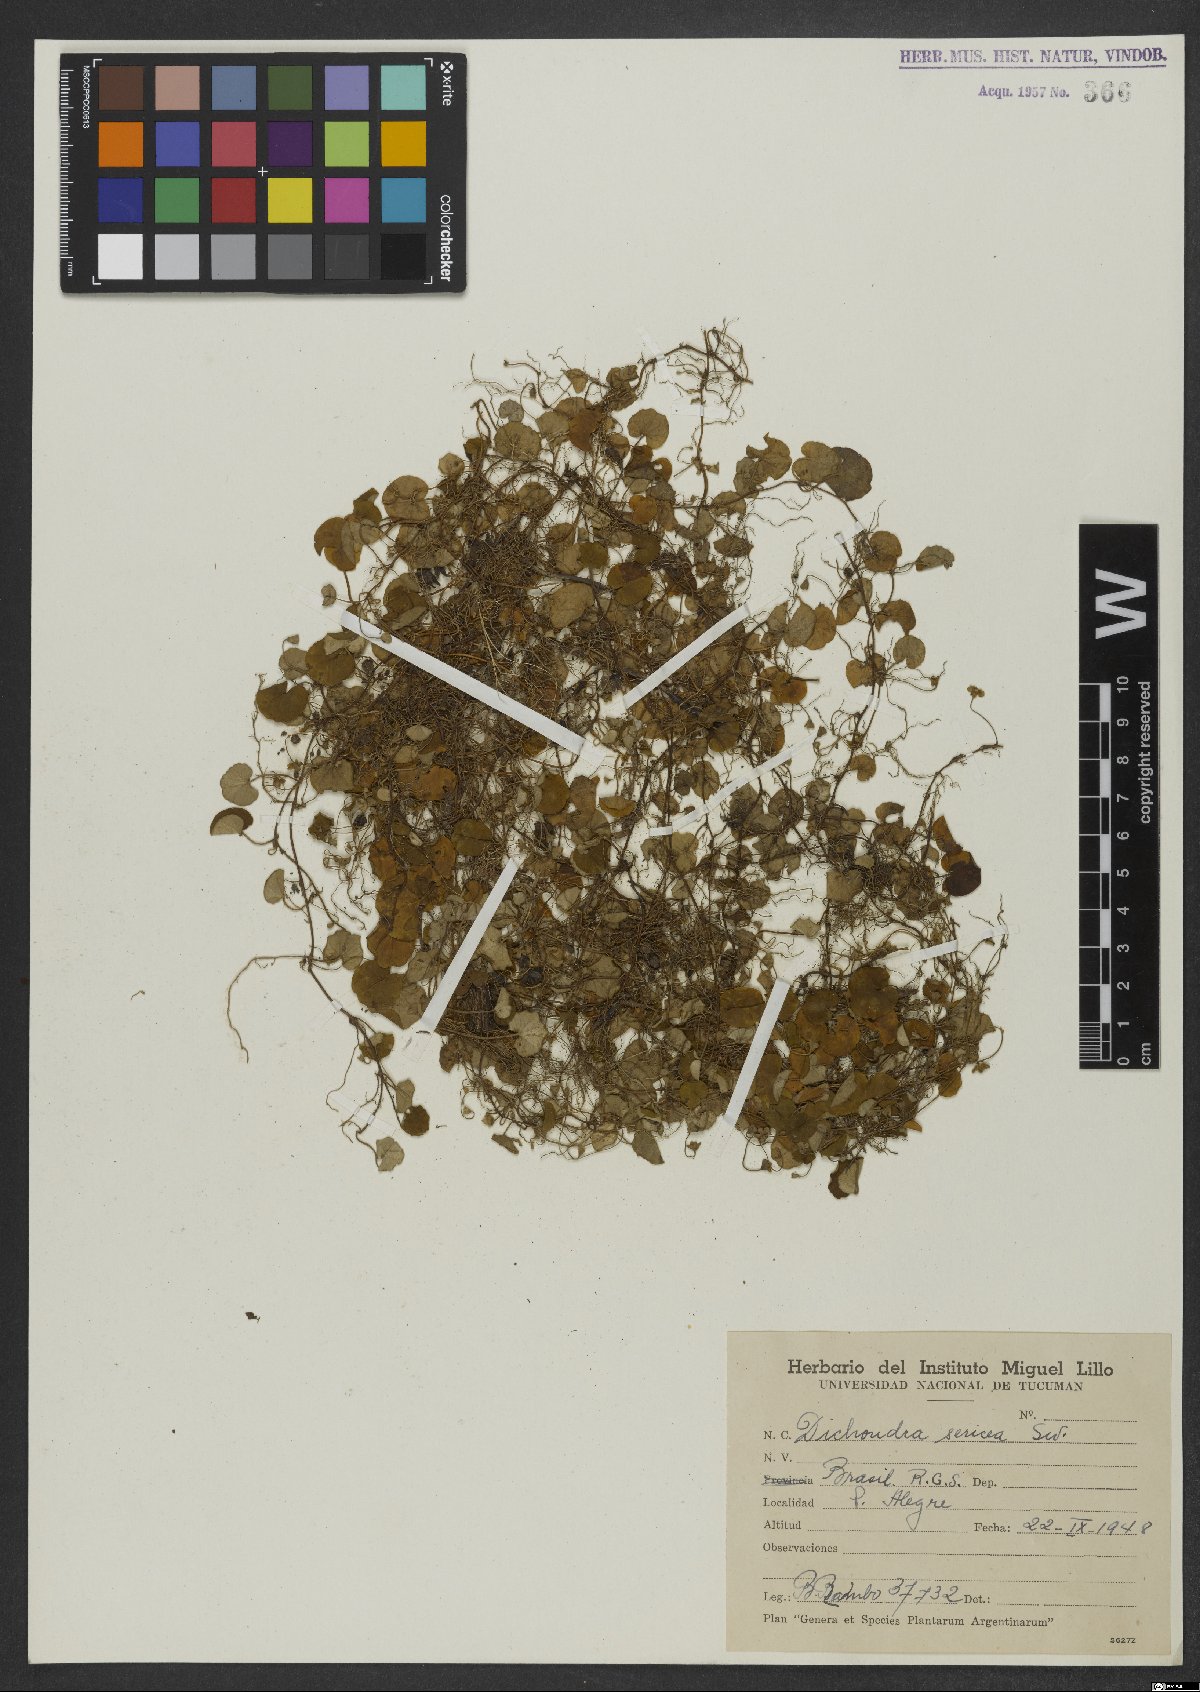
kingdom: Plantae
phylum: Tracheophyta
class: Magnoliopsida
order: Solanales
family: Convolvulaceae
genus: Dichondra
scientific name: Dichondra sericea
